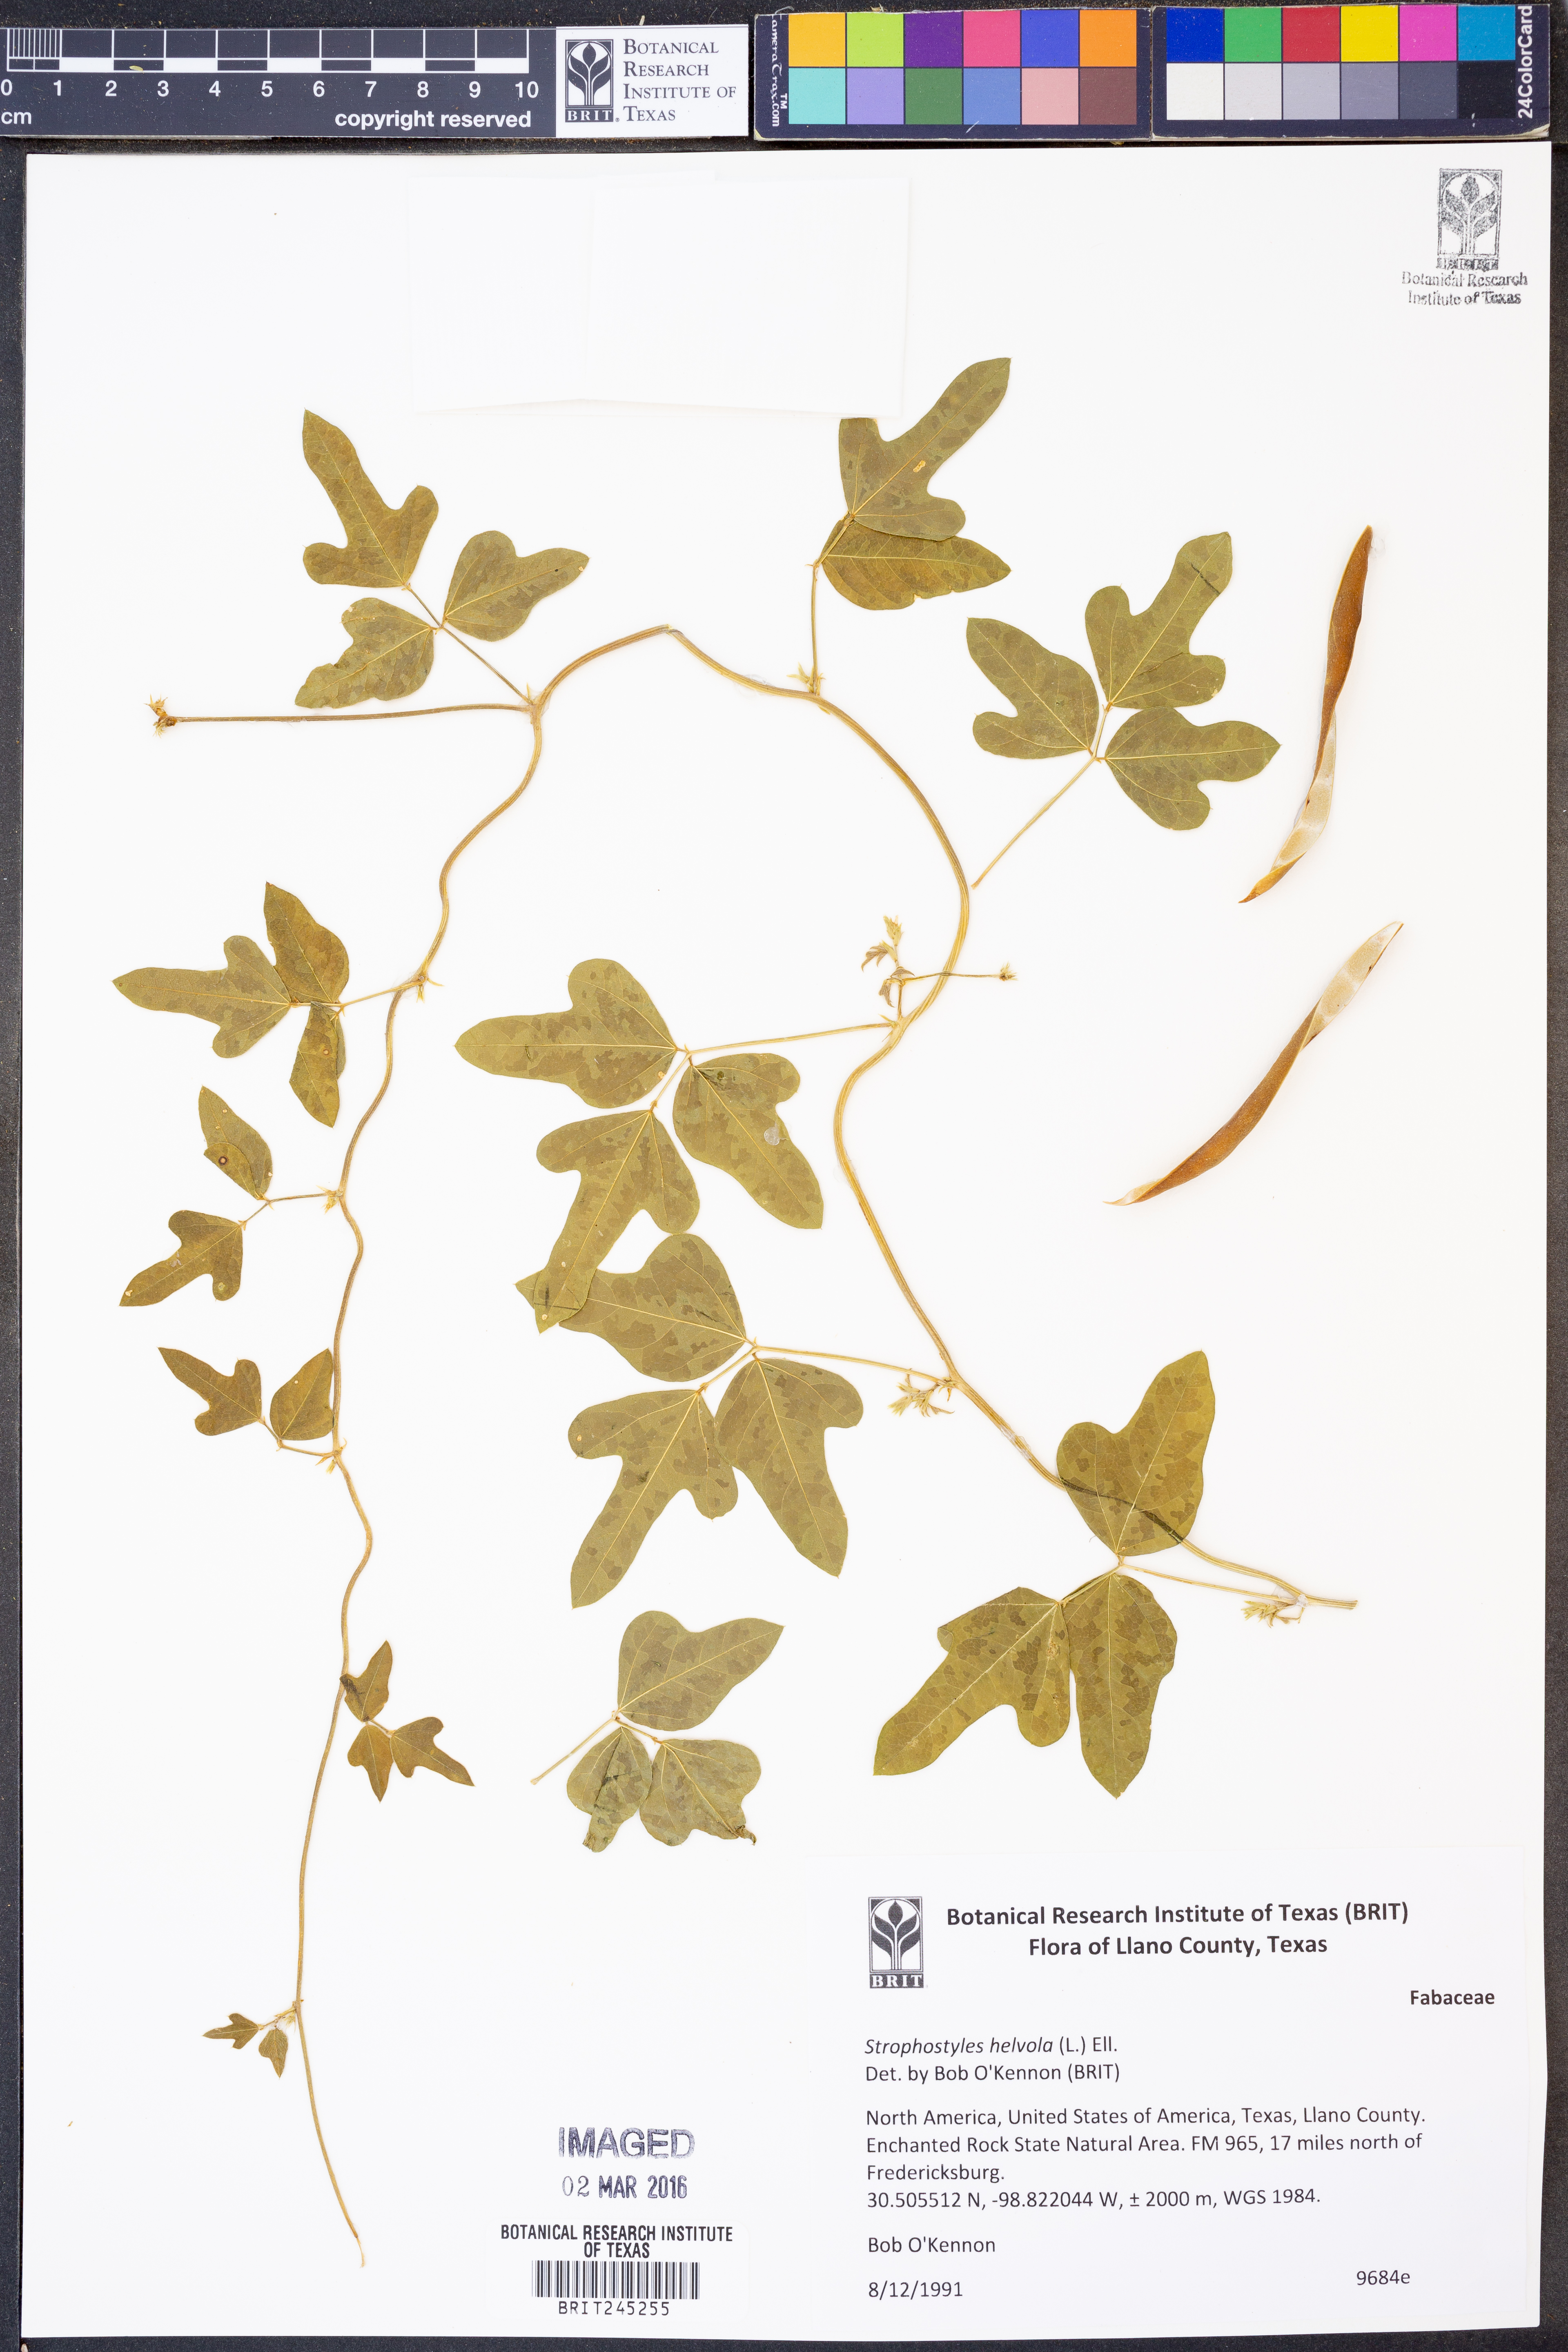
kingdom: Plantae
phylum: Tracheophyta
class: Magnoliopsida
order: Fabales
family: Fabaceae
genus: Strophostyles
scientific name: Strophostyles helvola
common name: Trailing wild bean
